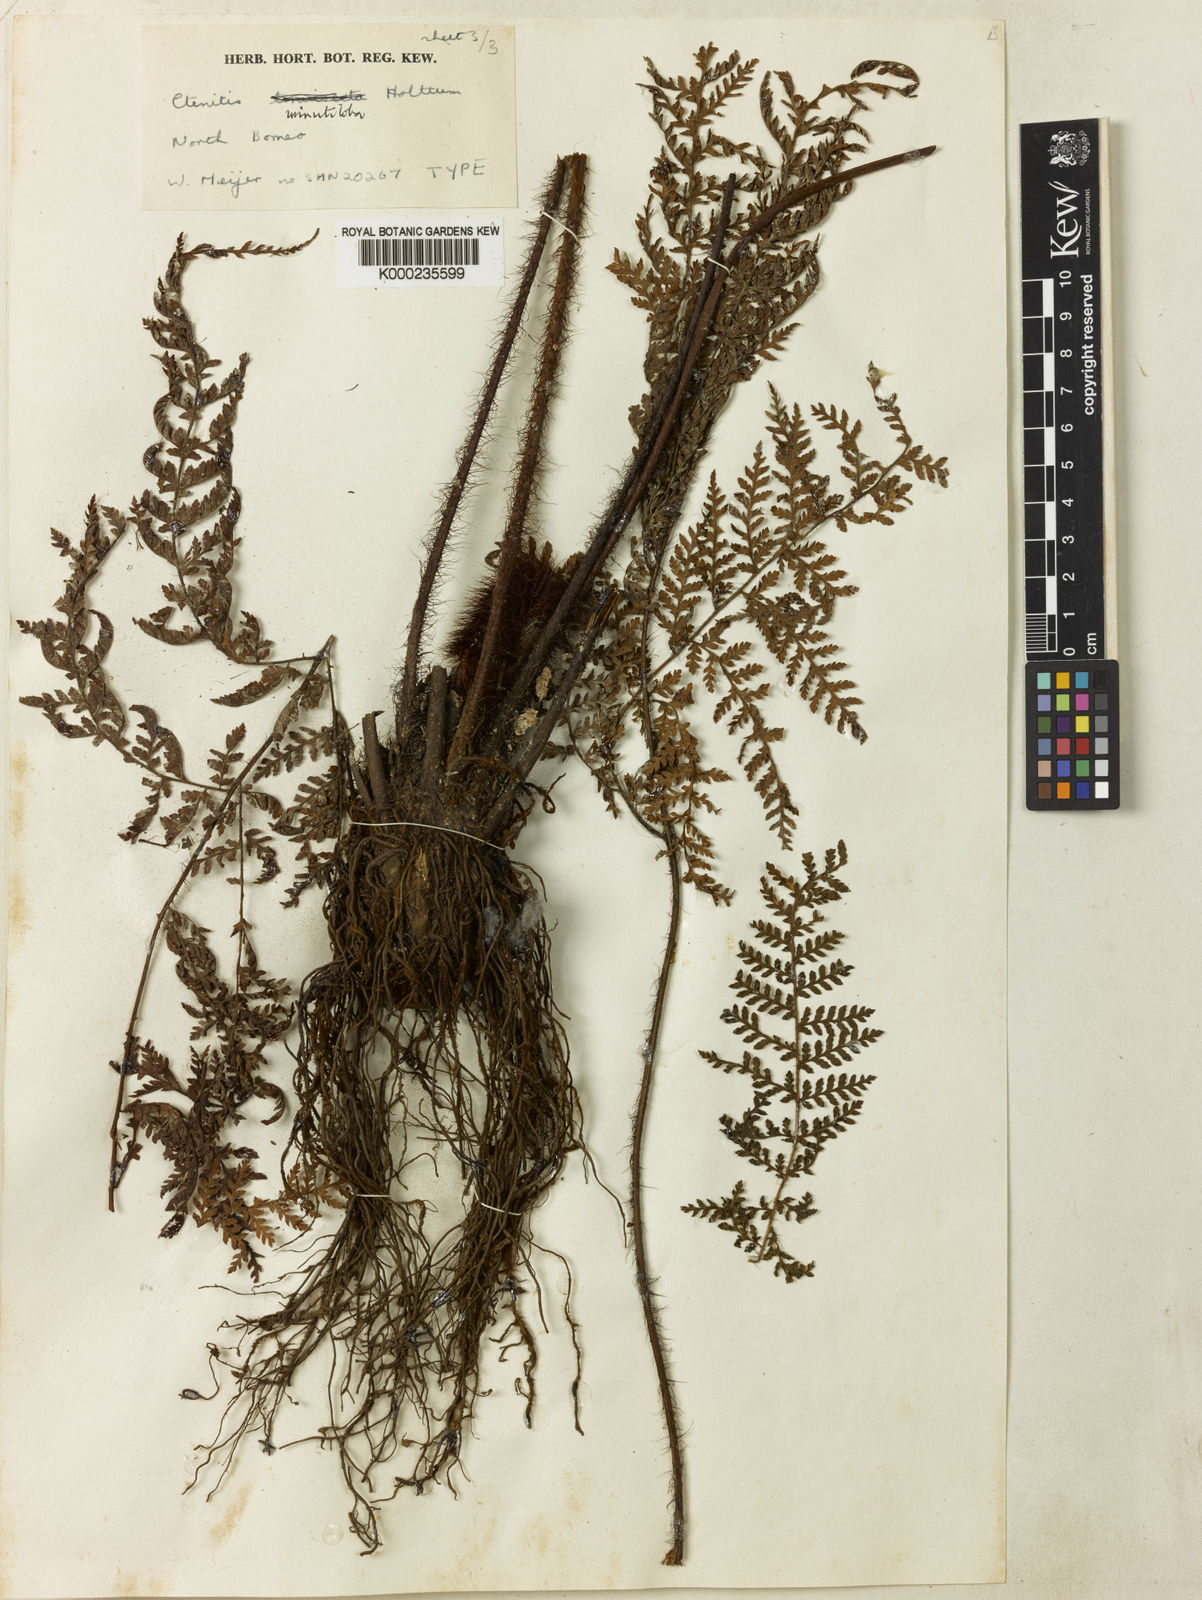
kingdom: Plantae
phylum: Tracheophyta
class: Polypodiopsida
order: Polypodiales
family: Dryopteridaceae
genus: Ctenitis
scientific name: Ctenitis minutiloba
